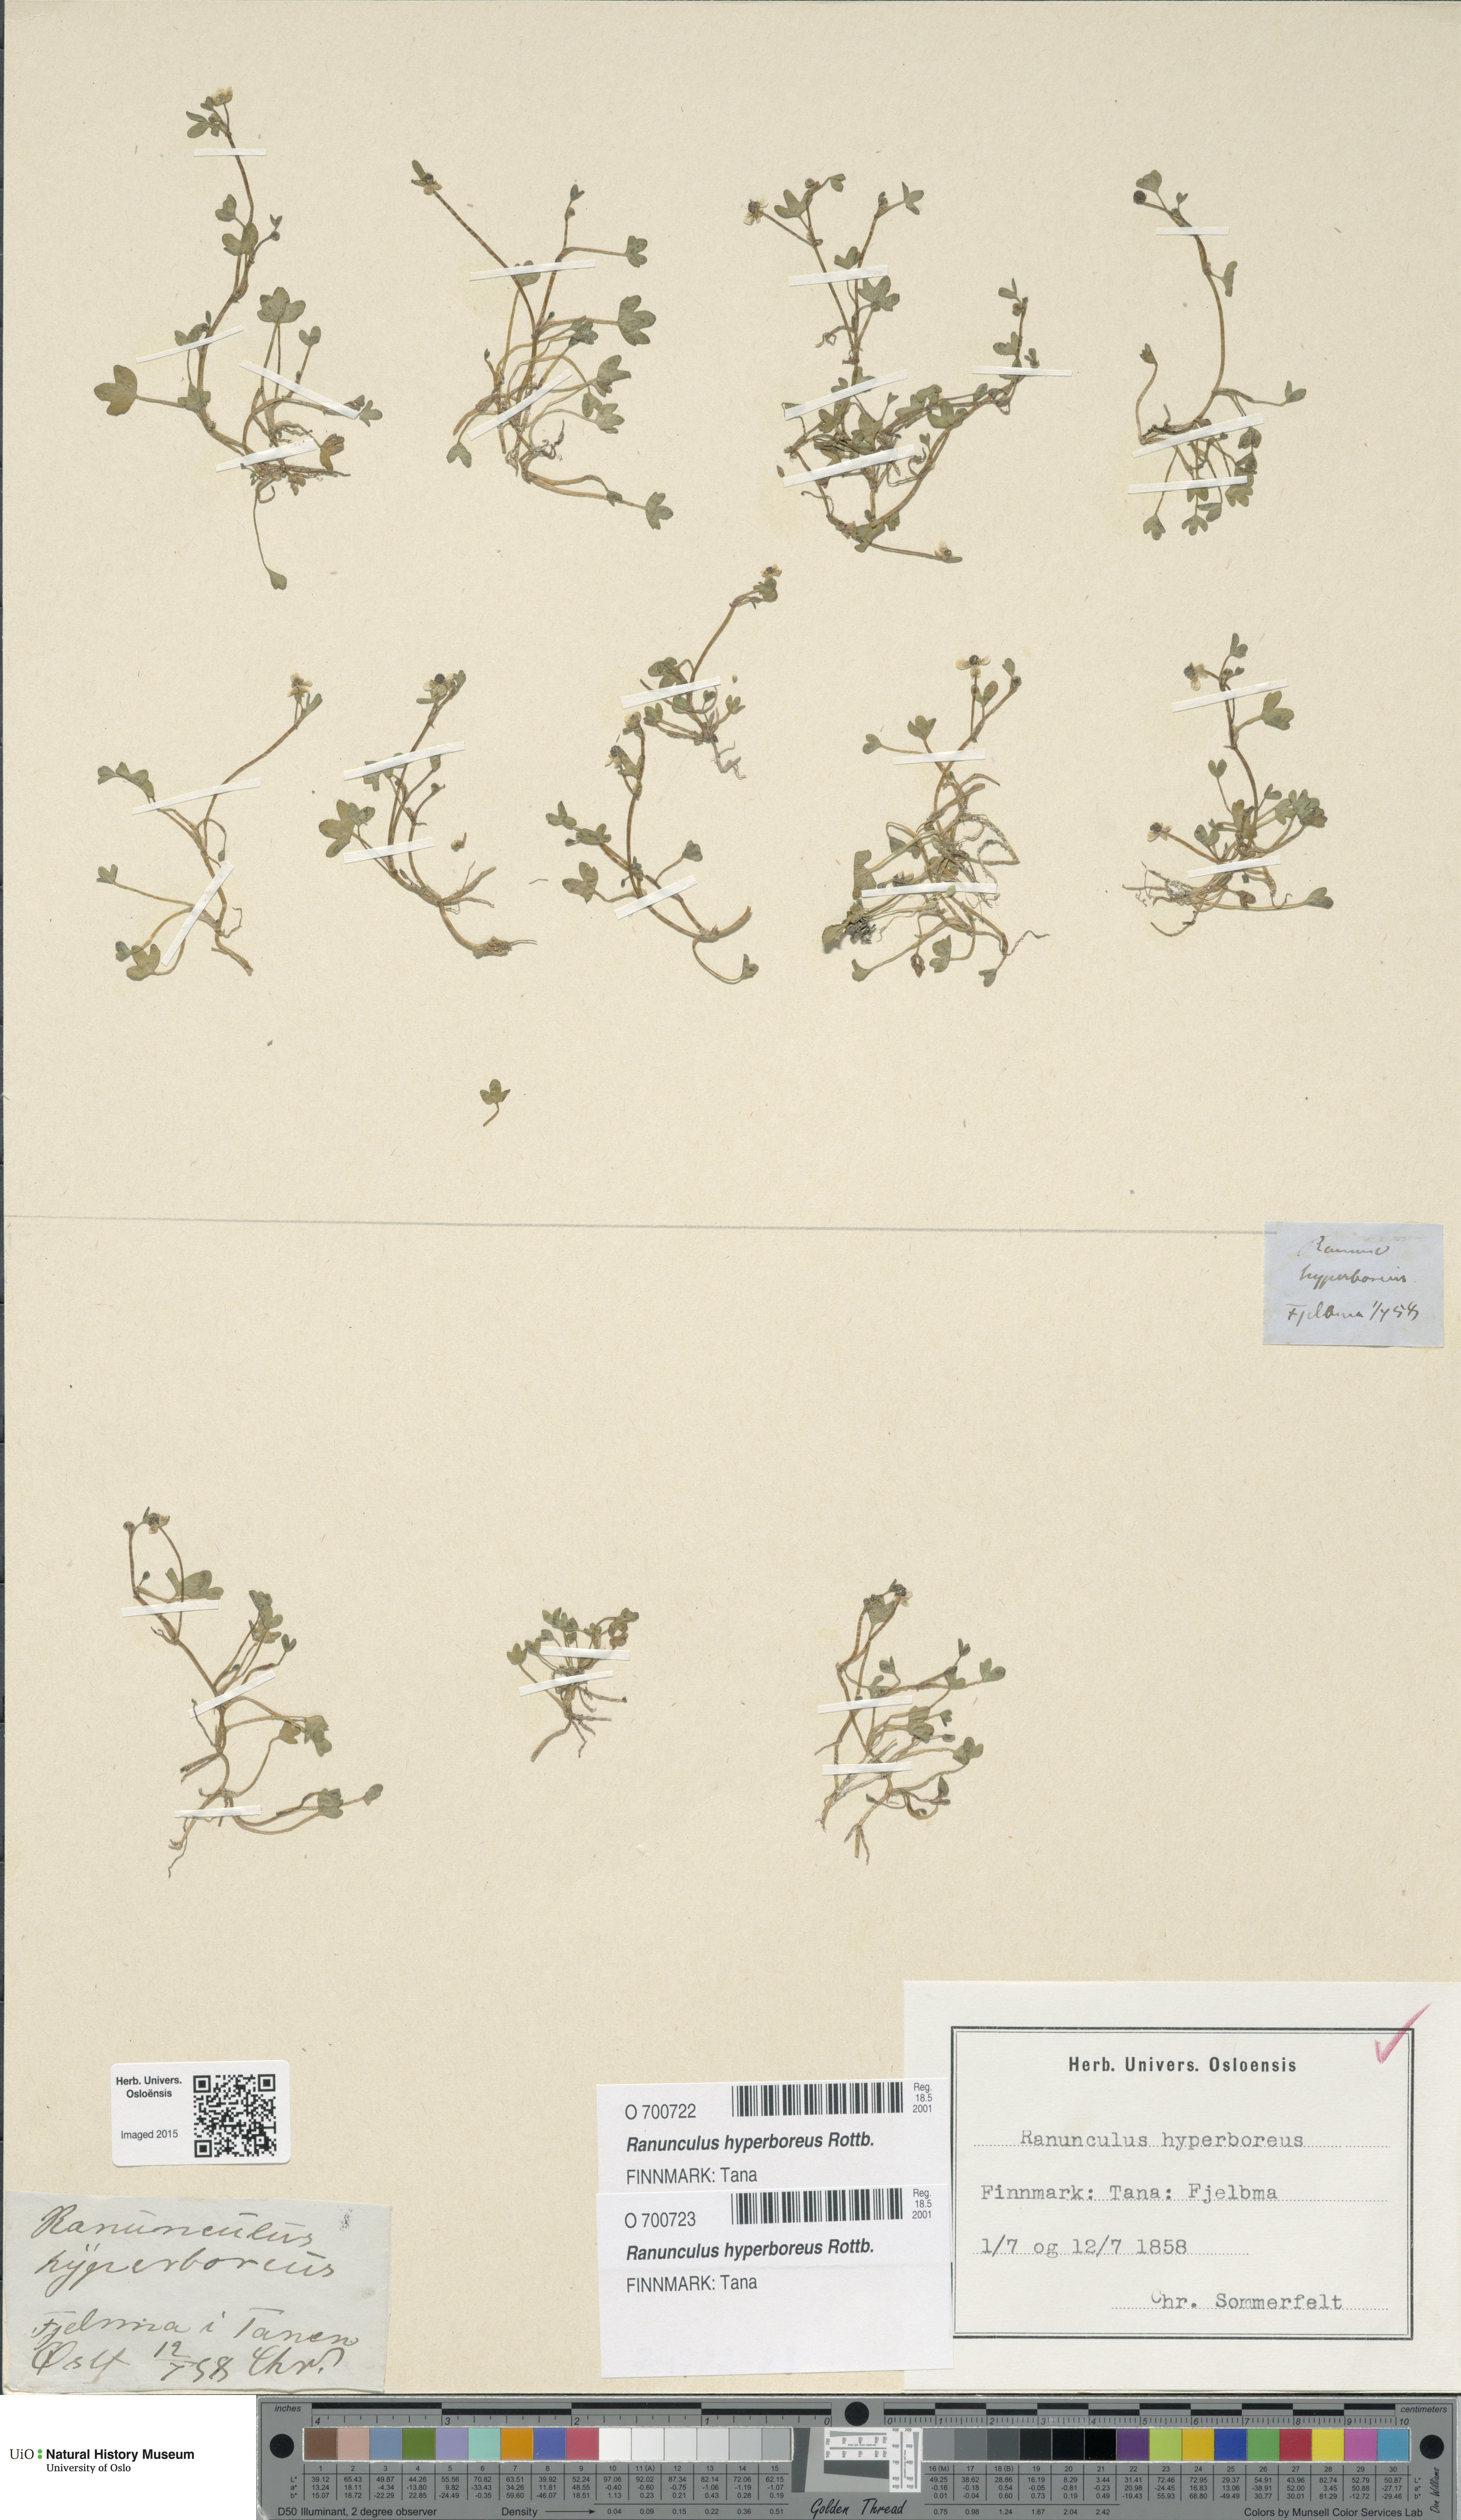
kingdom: Plantae
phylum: Tracheophyta
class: Magnoliopsida
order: Ranunculales
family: Ranunculaceae
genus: Ranunculus
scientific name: Ranunculus hyperboreus
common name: Arctic buttercup
